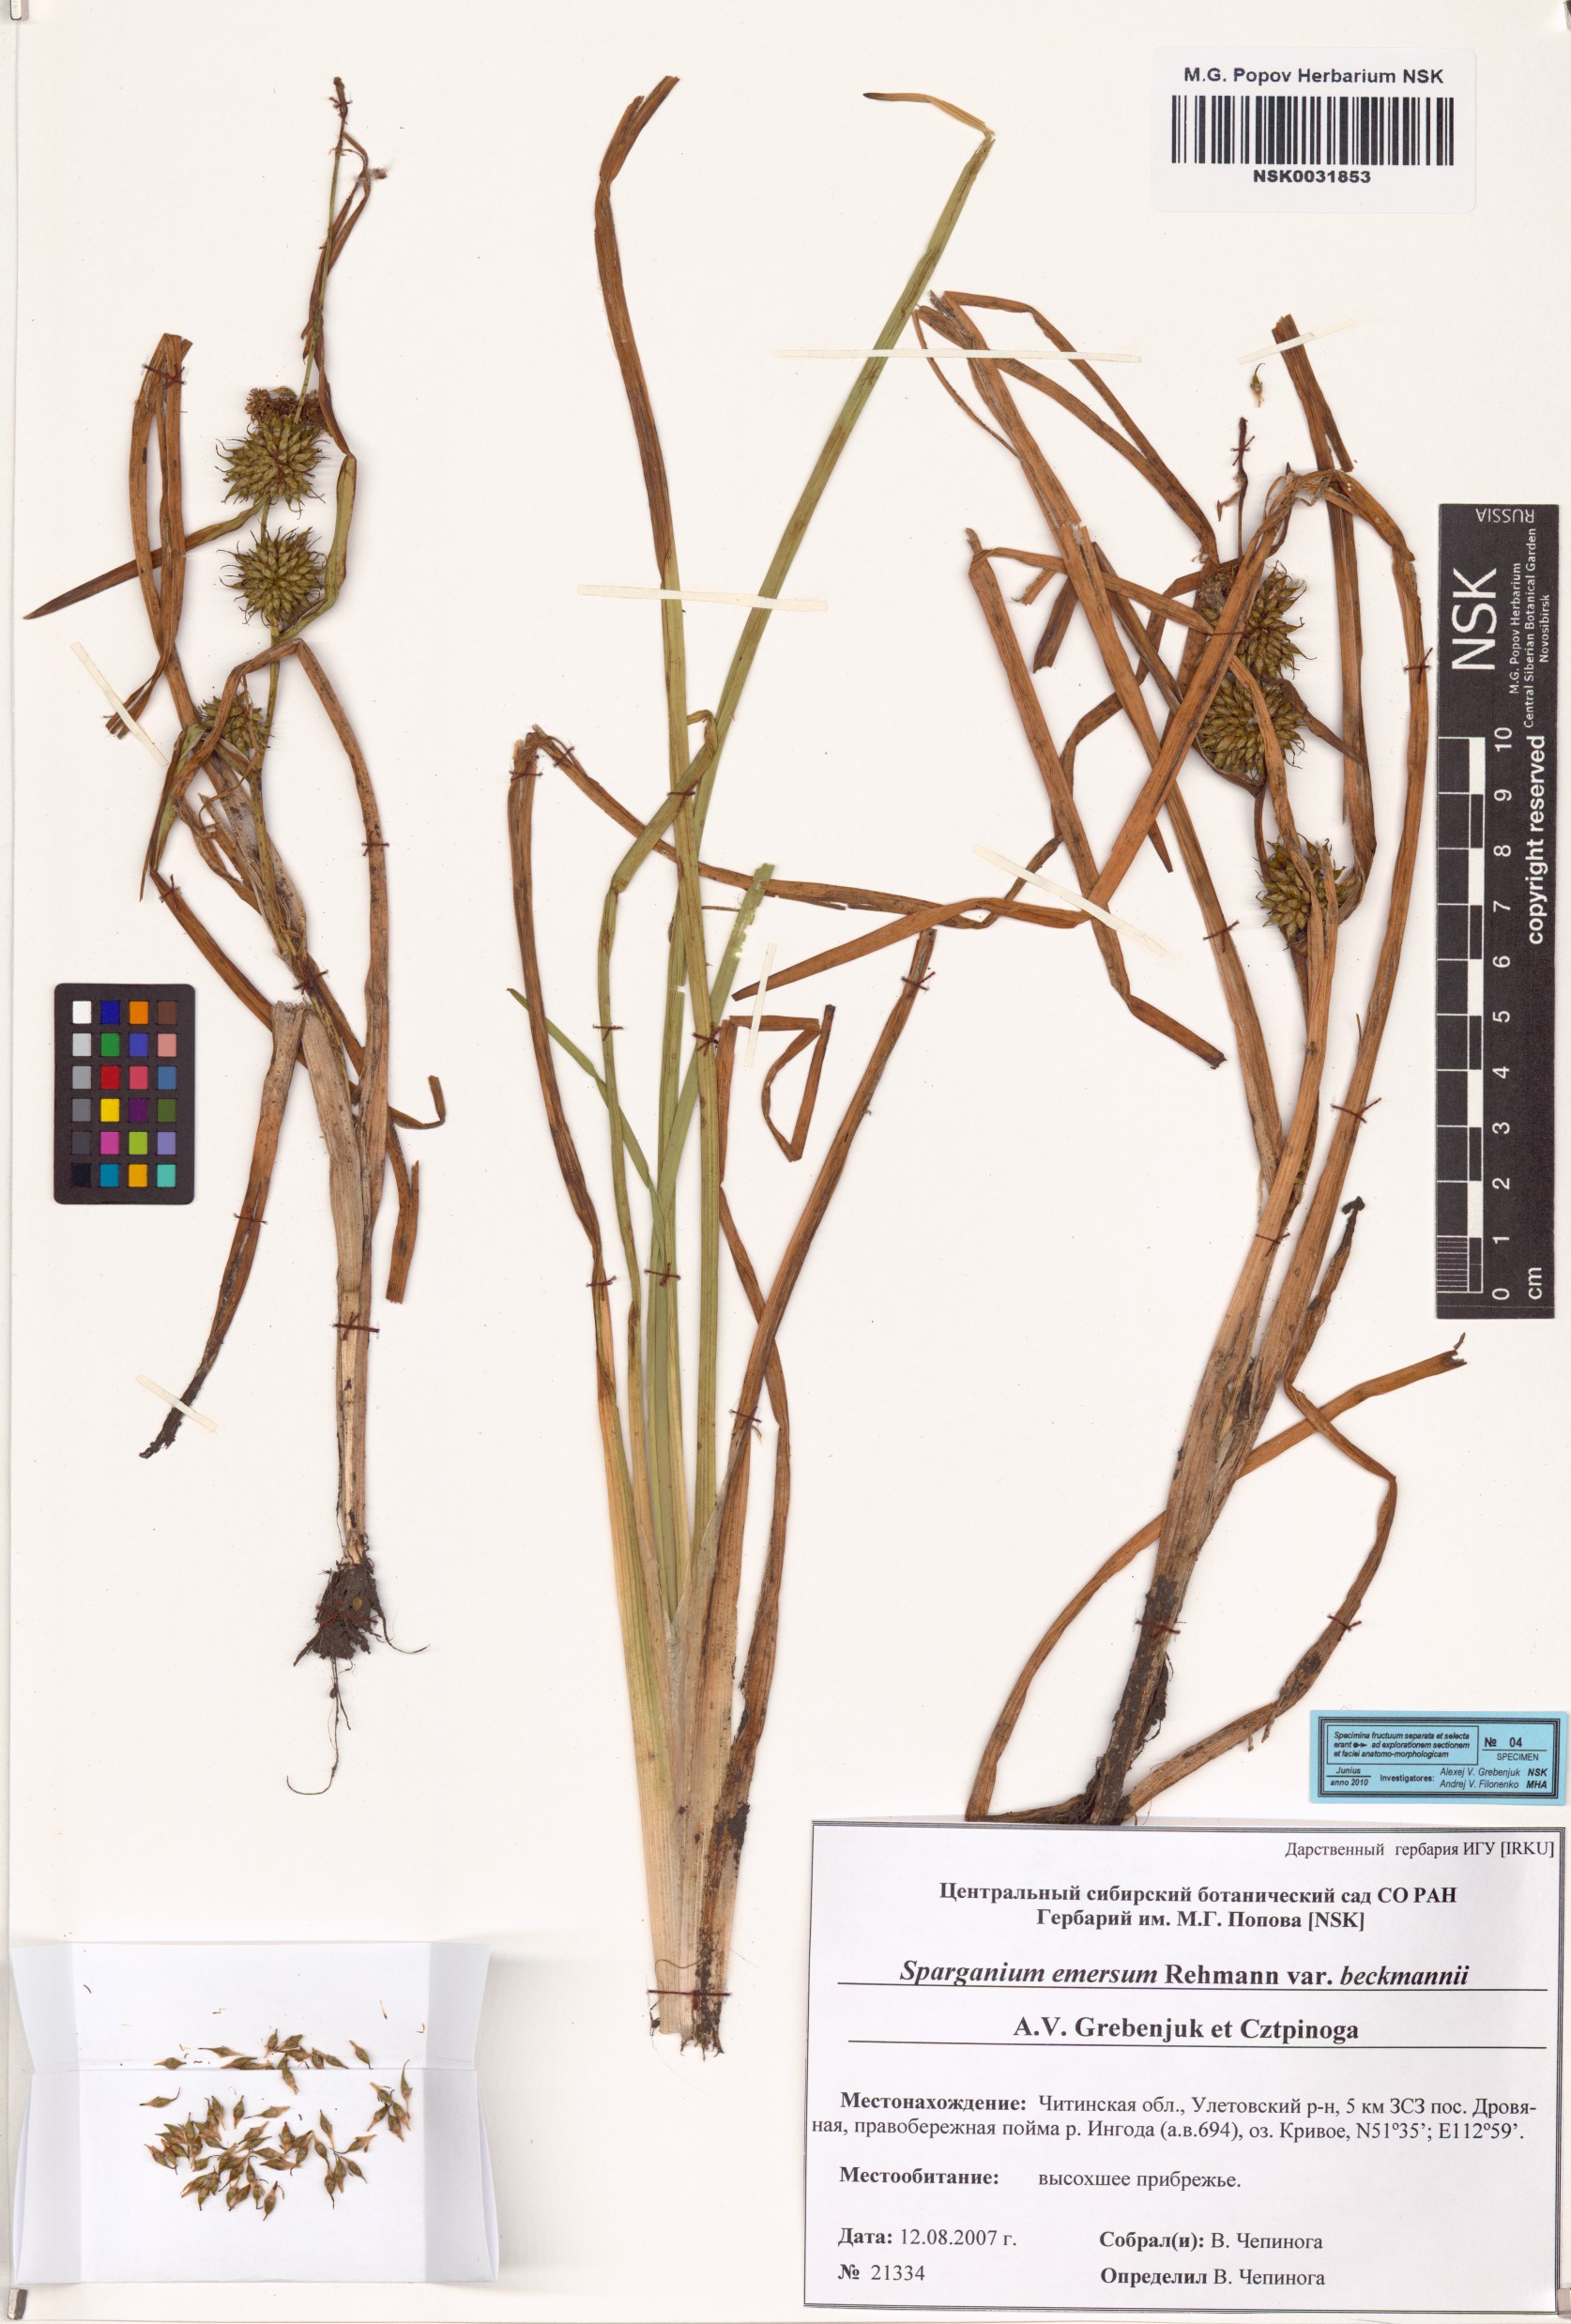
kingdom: Plantae
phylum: Tracheophyta
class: Liliopsida
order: Poales
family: Typhaceae
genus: Sparganium
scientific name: Sparganium emersum
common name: Unbranched bur-reed
